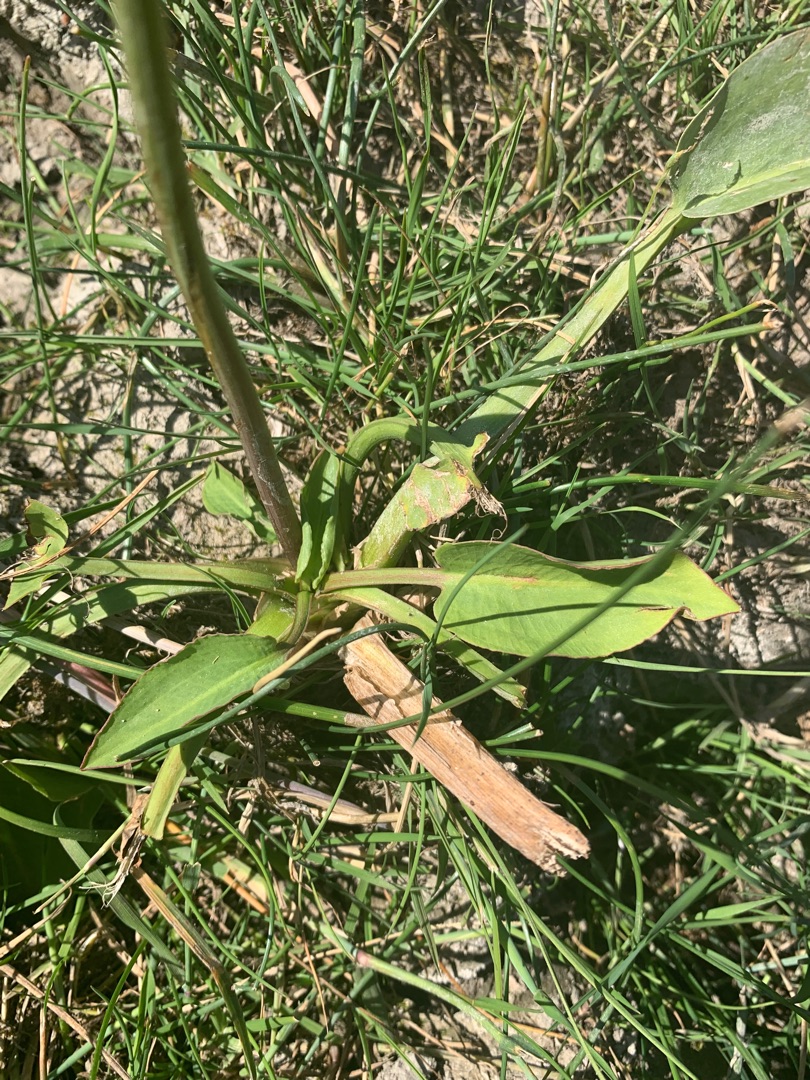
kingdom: Plantae
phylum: Tracheophyta
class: Liliopsida
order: Alismatales
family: Alismataceae
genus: Alisma
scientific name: Alisma plantago-aquatica
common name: Vejbred-skeblad
